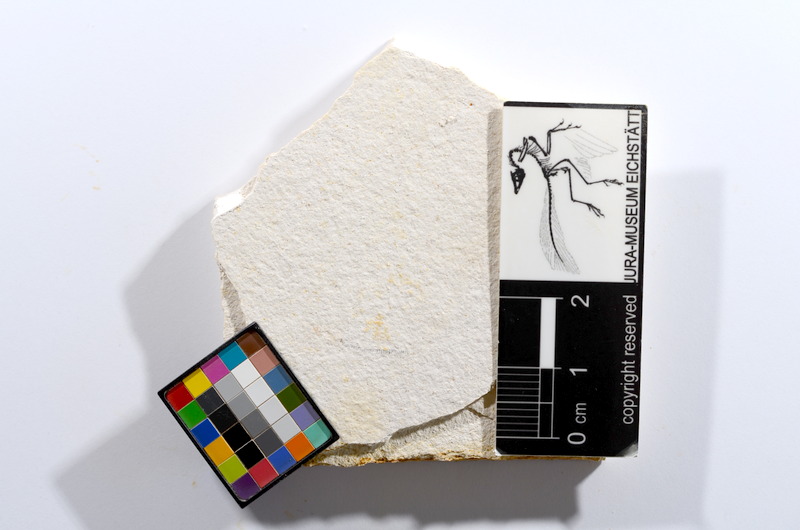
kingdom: Animalia
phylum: Chordata
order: Salmoniformes
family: Orthogonikleithridae
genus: Orthogonikleithrus
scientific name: Orthogonikleithrus hoelli
